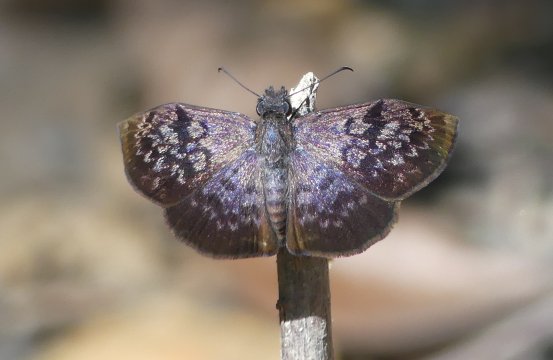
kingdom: Animalia
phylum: Arthropoda
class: Insecta
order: Lepidoptera
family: Hesperiidae
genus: Camptopleura
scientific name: Camptopleura auxo
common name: Auxo Bent-Skipper
